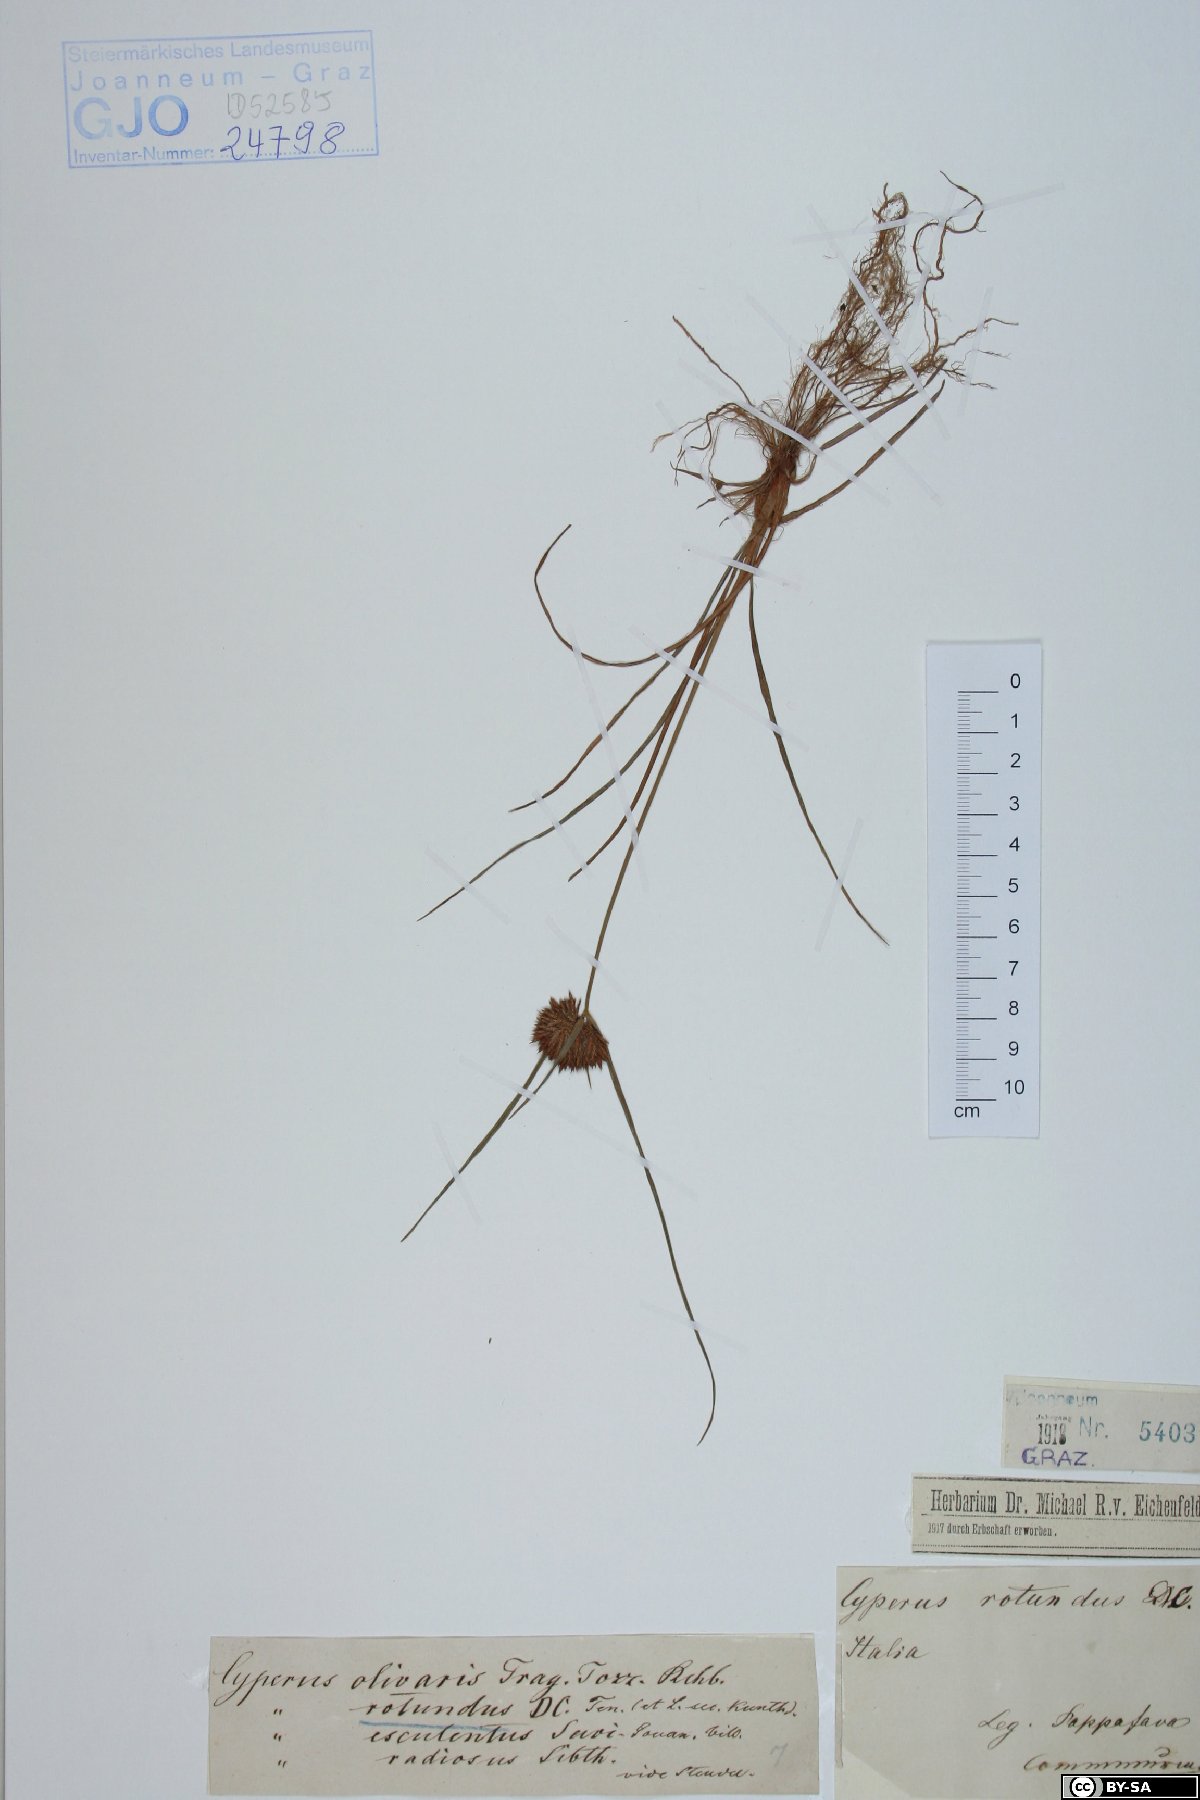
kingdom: Plantae
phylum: Tracheophyta
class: Liliopsida
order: Poales
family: Cyperaceae
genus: Cyperus
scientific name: Cyperus rotundus
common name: Nutgrass
